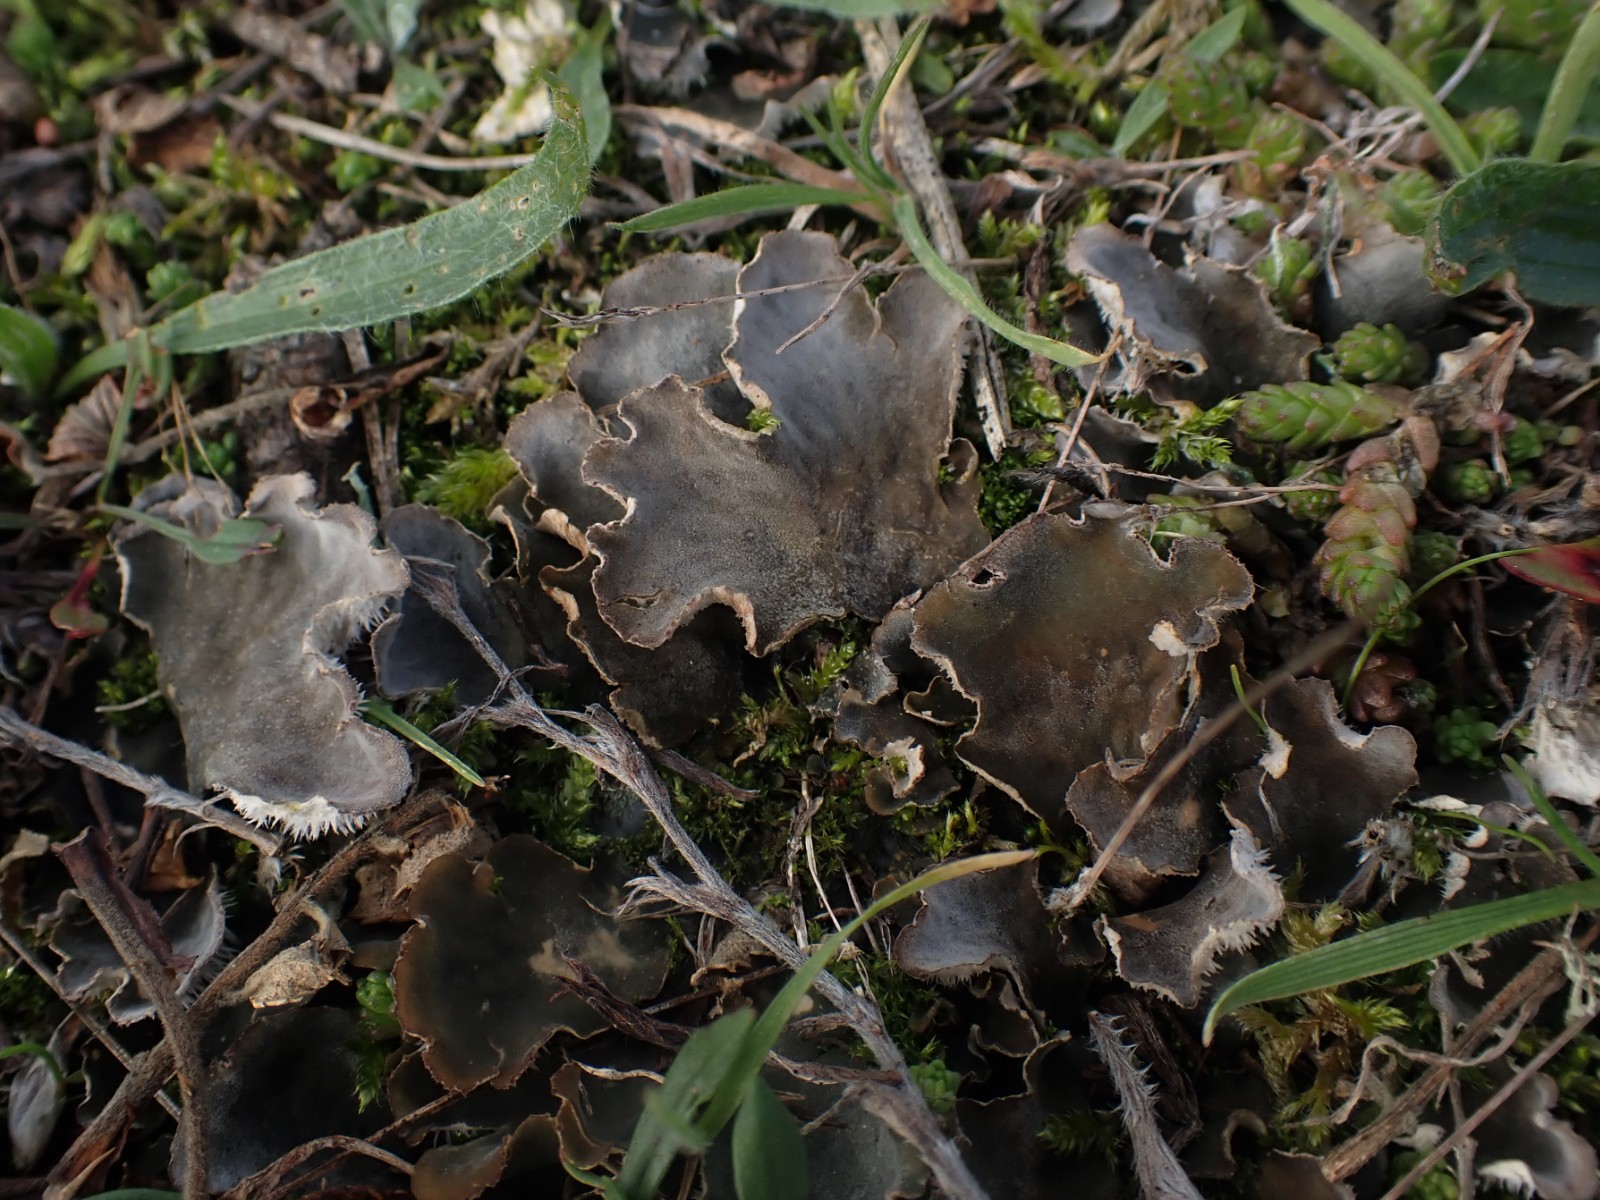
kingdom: Fungi
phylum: Ascomycota
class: Lecanoromycetes
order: Peltigerales
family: Peltigeraceae
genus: Peltigera
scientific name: Peltigera canina
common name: hunde-skjoldlav
